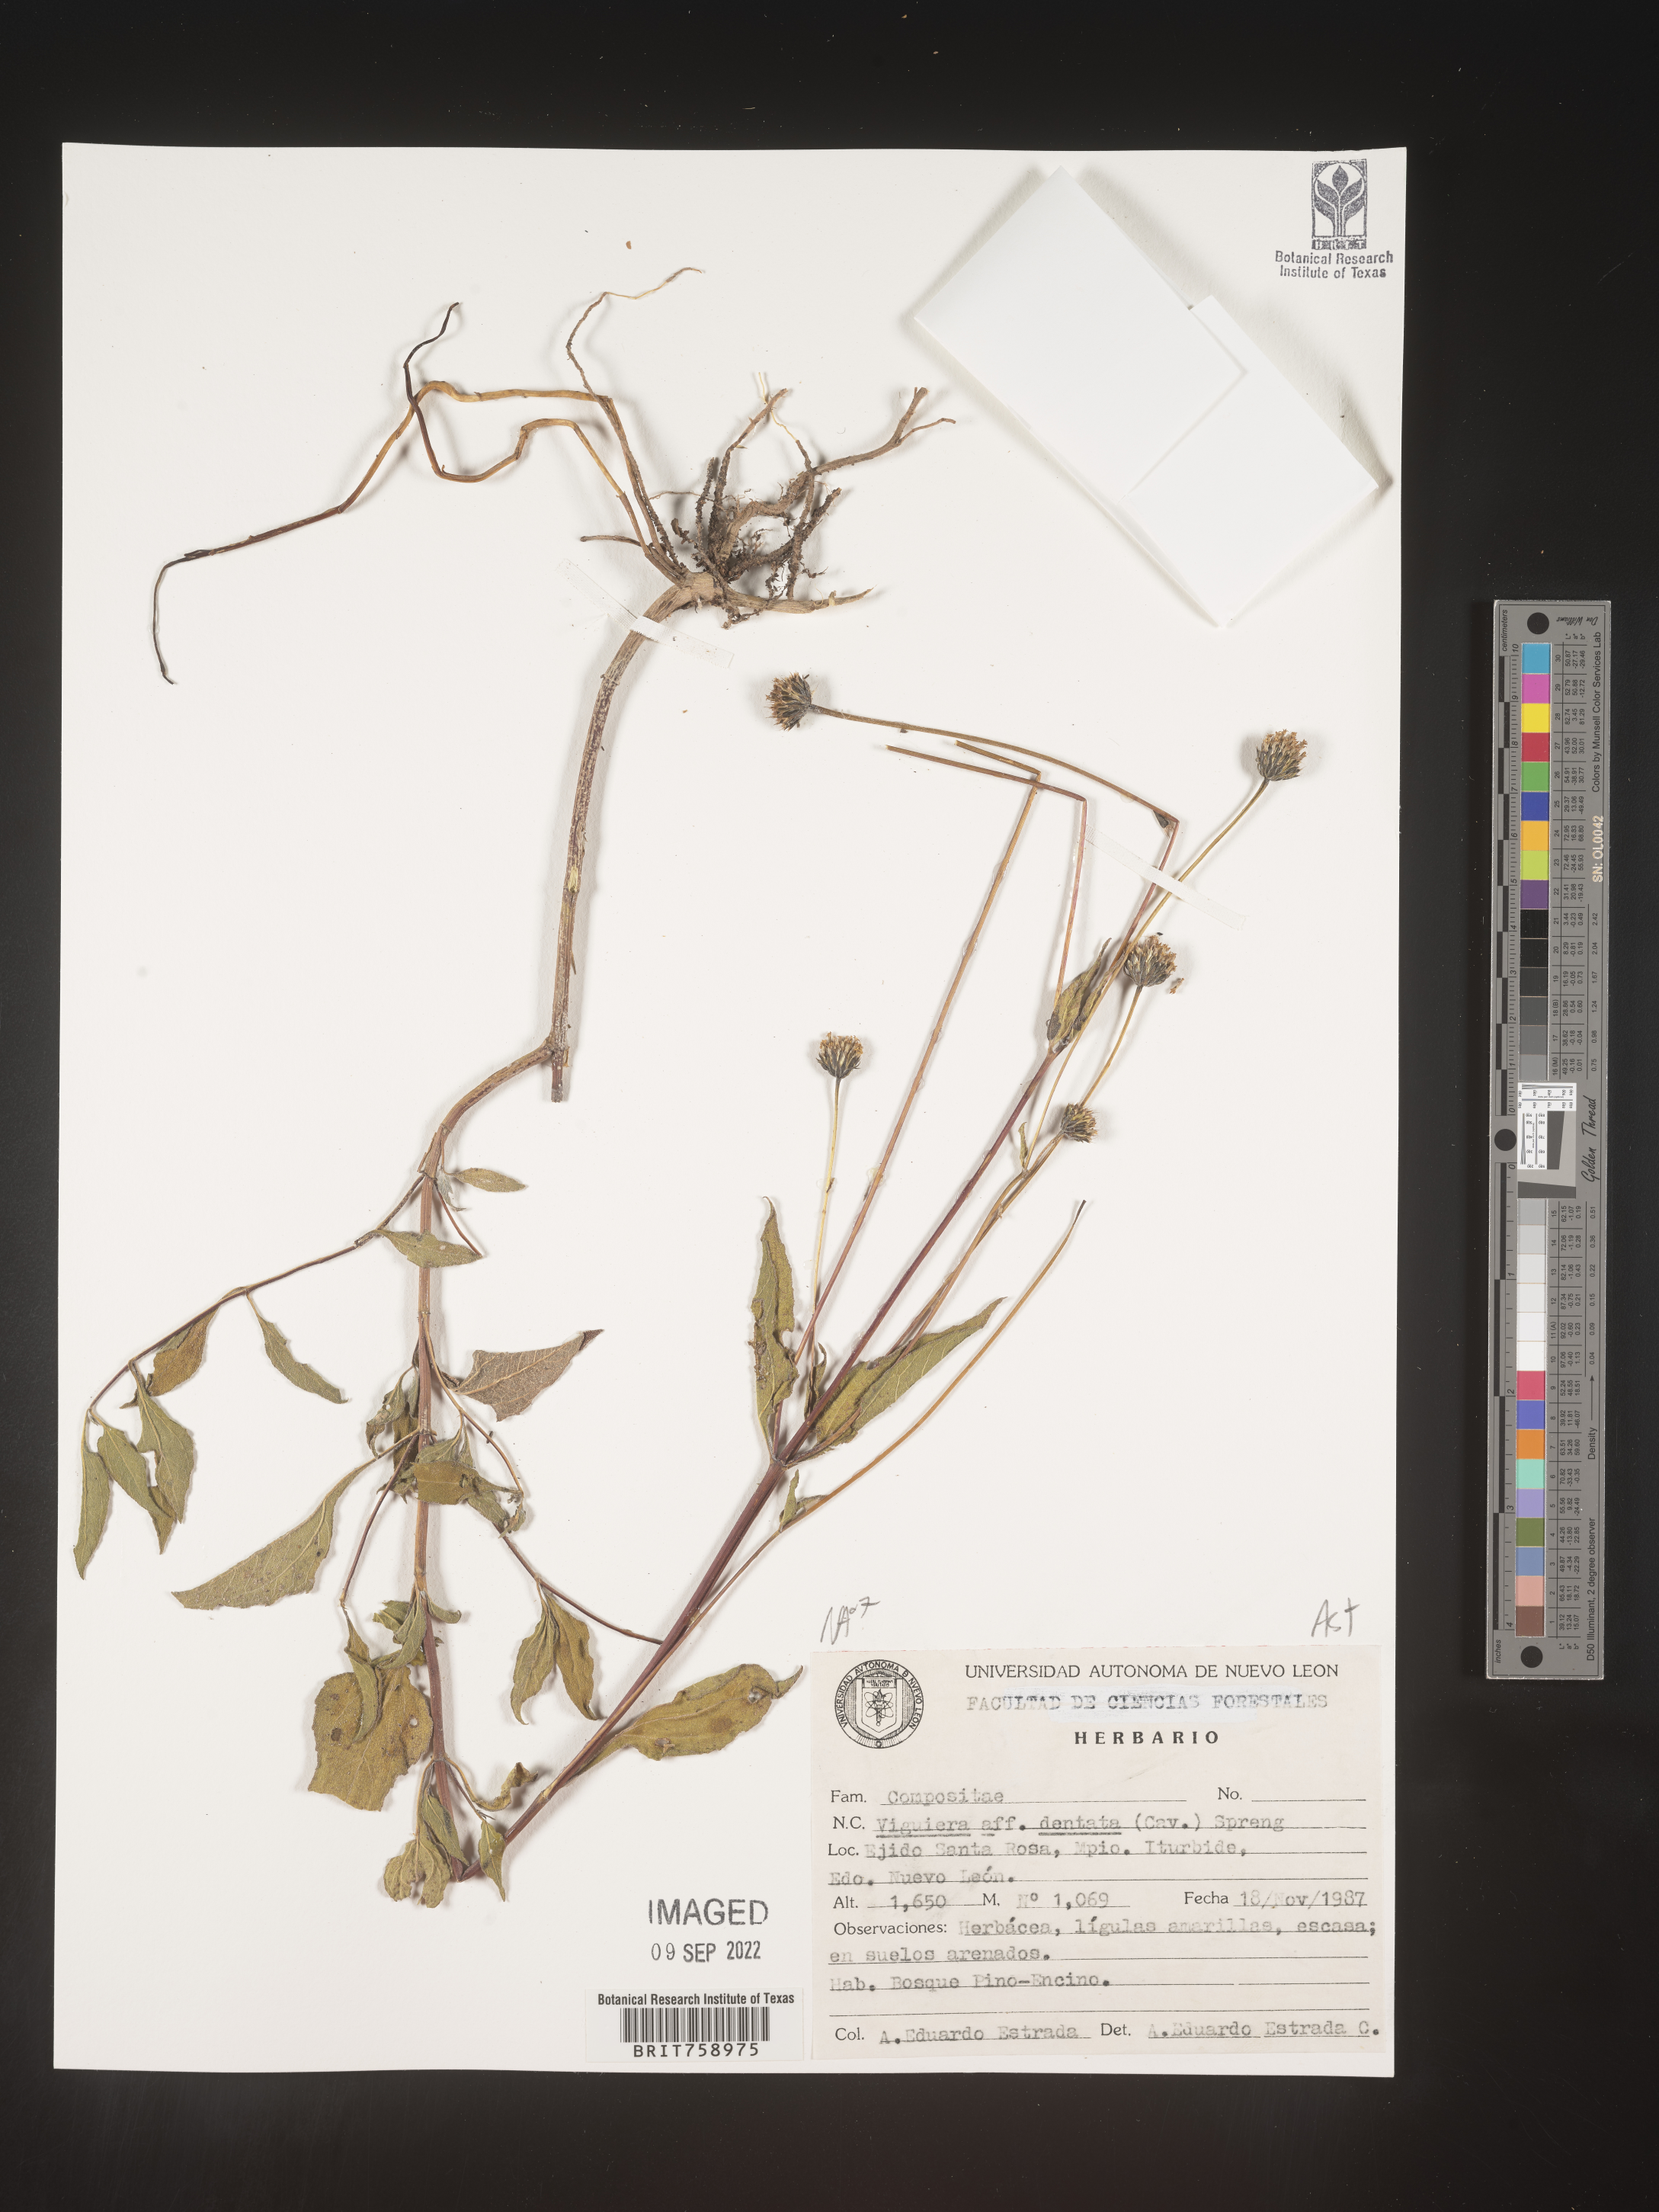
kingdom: Plantae
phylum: Tracheophyta
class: Magnoliopsida
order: Asterales
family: Asteraceae
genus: Viguiera
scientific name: Viguiera
